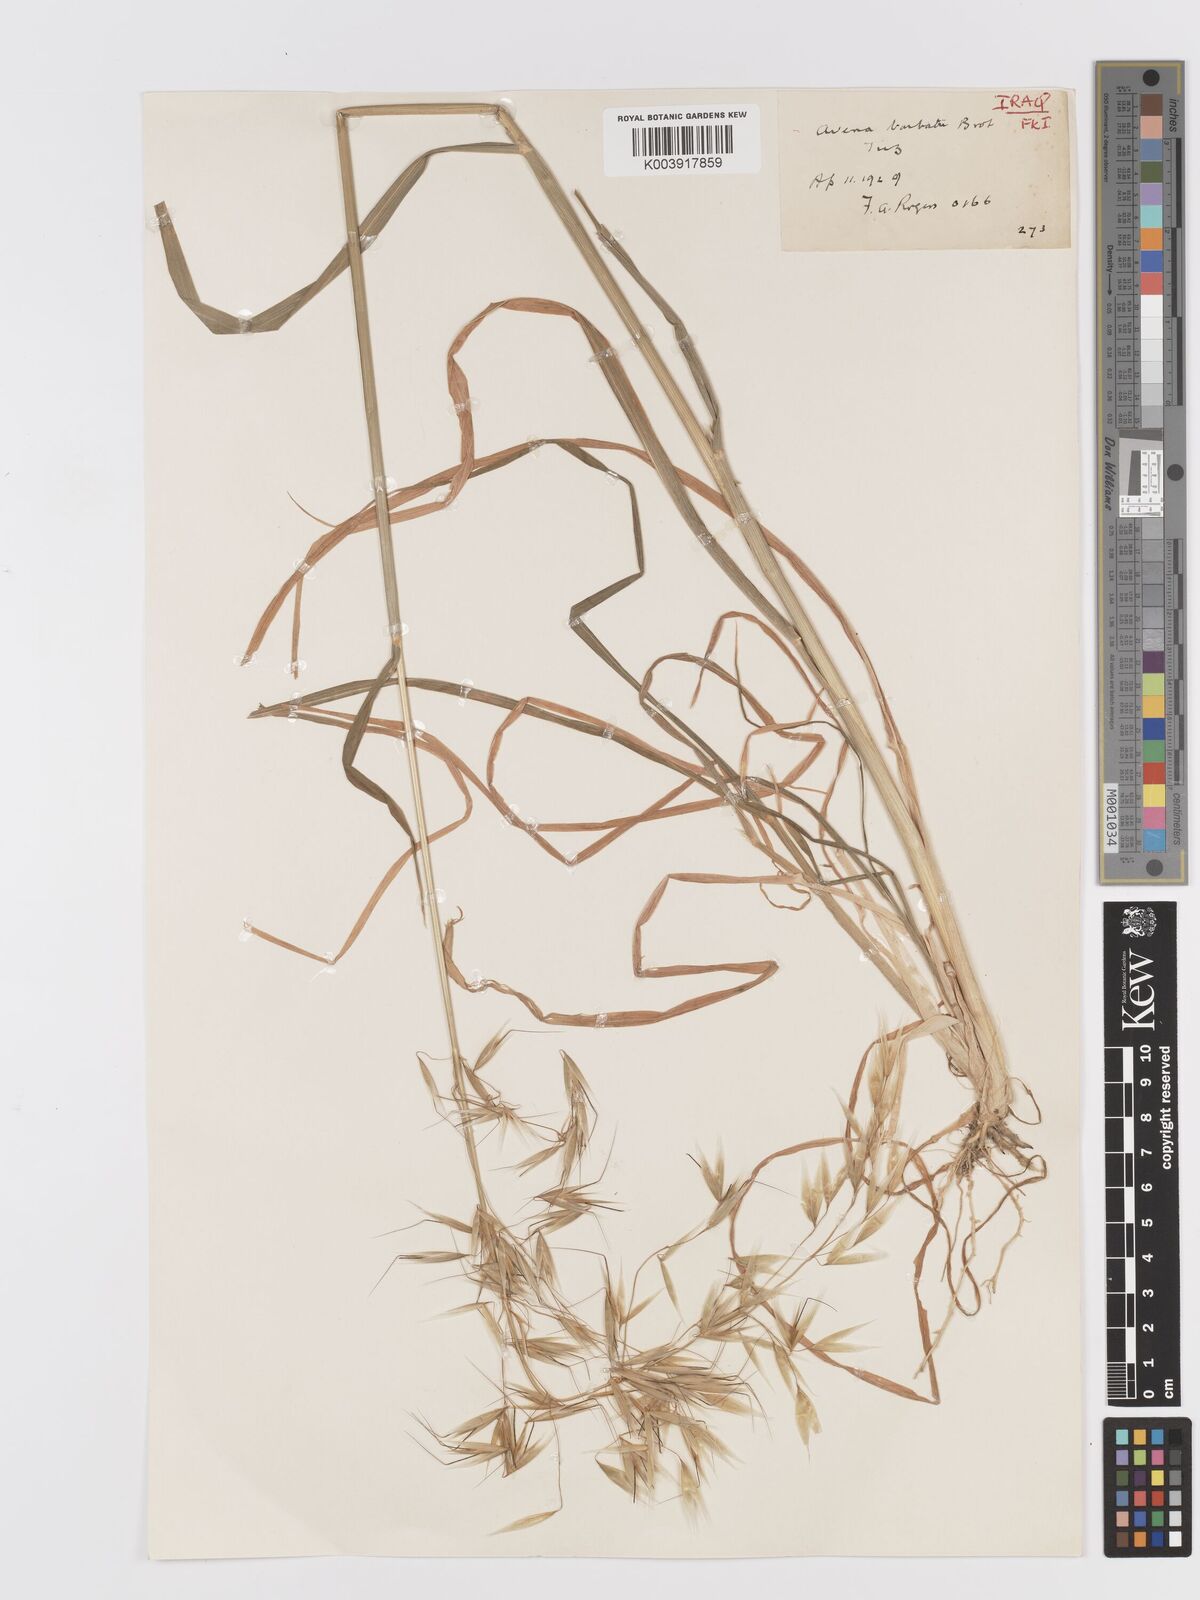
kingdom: Plantae
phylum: Tracheophyta
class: Liliopsida
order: Poales
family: Poaceae
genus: Avena
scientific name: Avena
